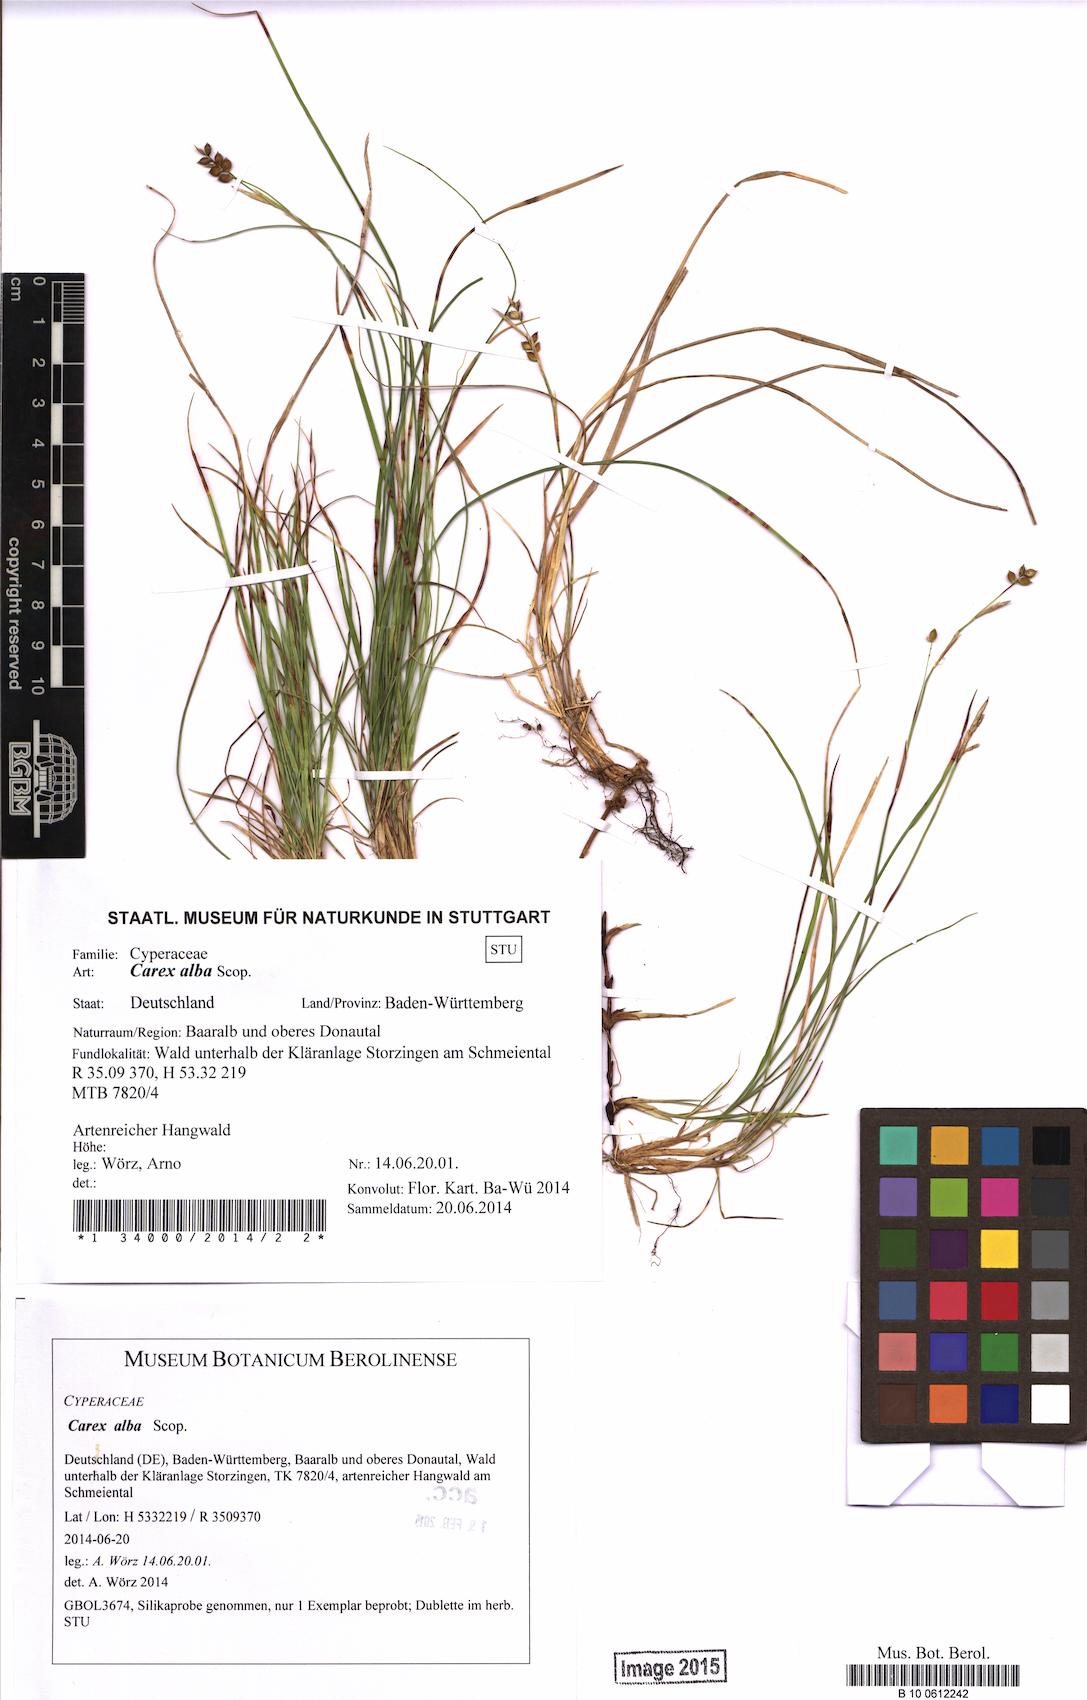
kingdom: Plantae
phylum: Tracheophyta
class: Liliopsida
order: Poales
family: Cyperaceae
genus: Carex
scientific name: Carex alba
